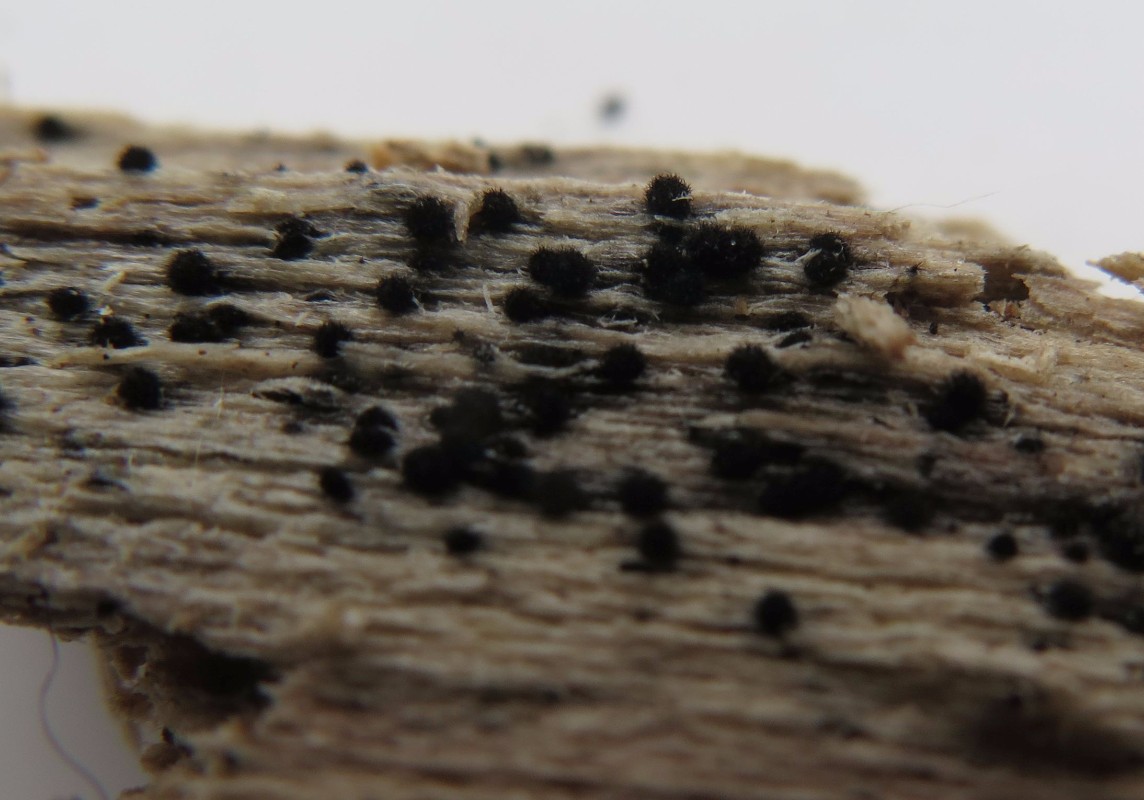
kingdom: Fungi
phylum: Ascomycota
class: Sordariomycetes
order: Sordariales
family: Lasiosphaeridaceae
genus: Lasiosphaeris
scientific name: Lasiosphaeris hirsuta
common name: sorthåret kernesvamp
